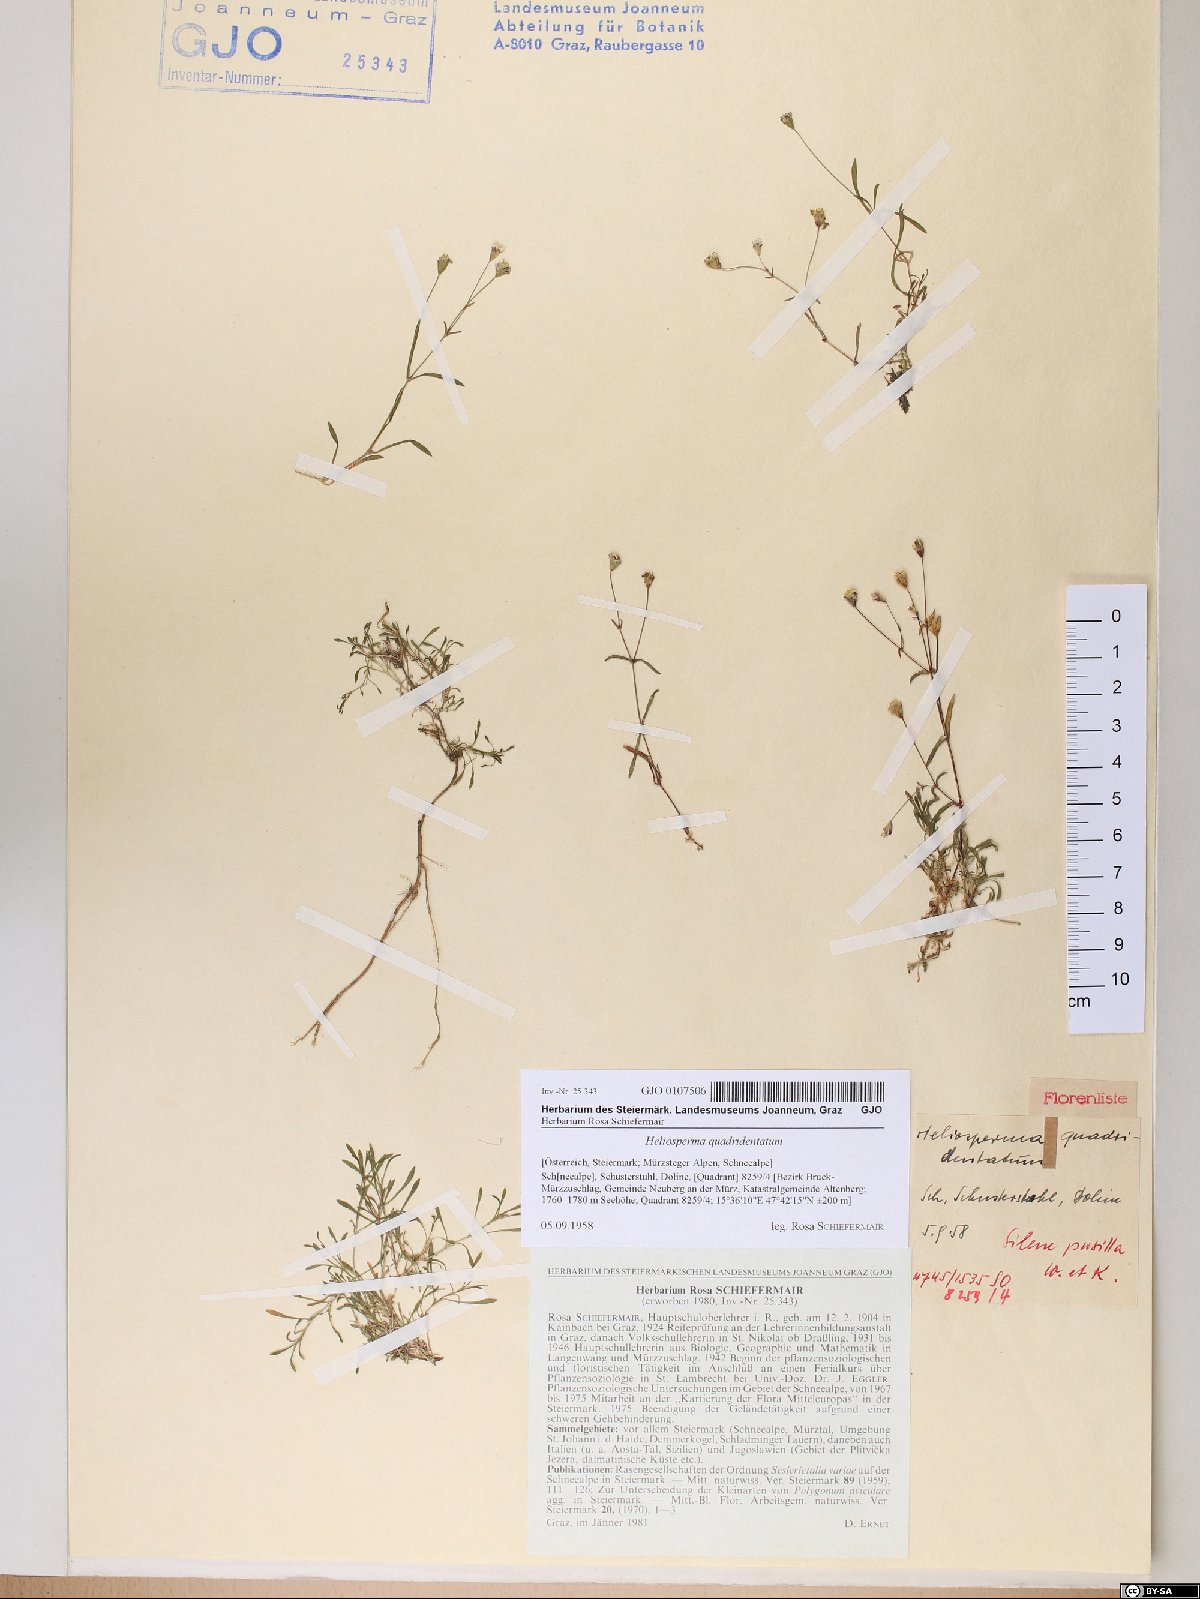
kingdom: Plantae
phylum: Tracheophyta
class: Magnoliopsida
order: Caryophyllales
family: Caryophyllaceae
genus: Heliosperma
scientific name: Heliosperma alpestre
